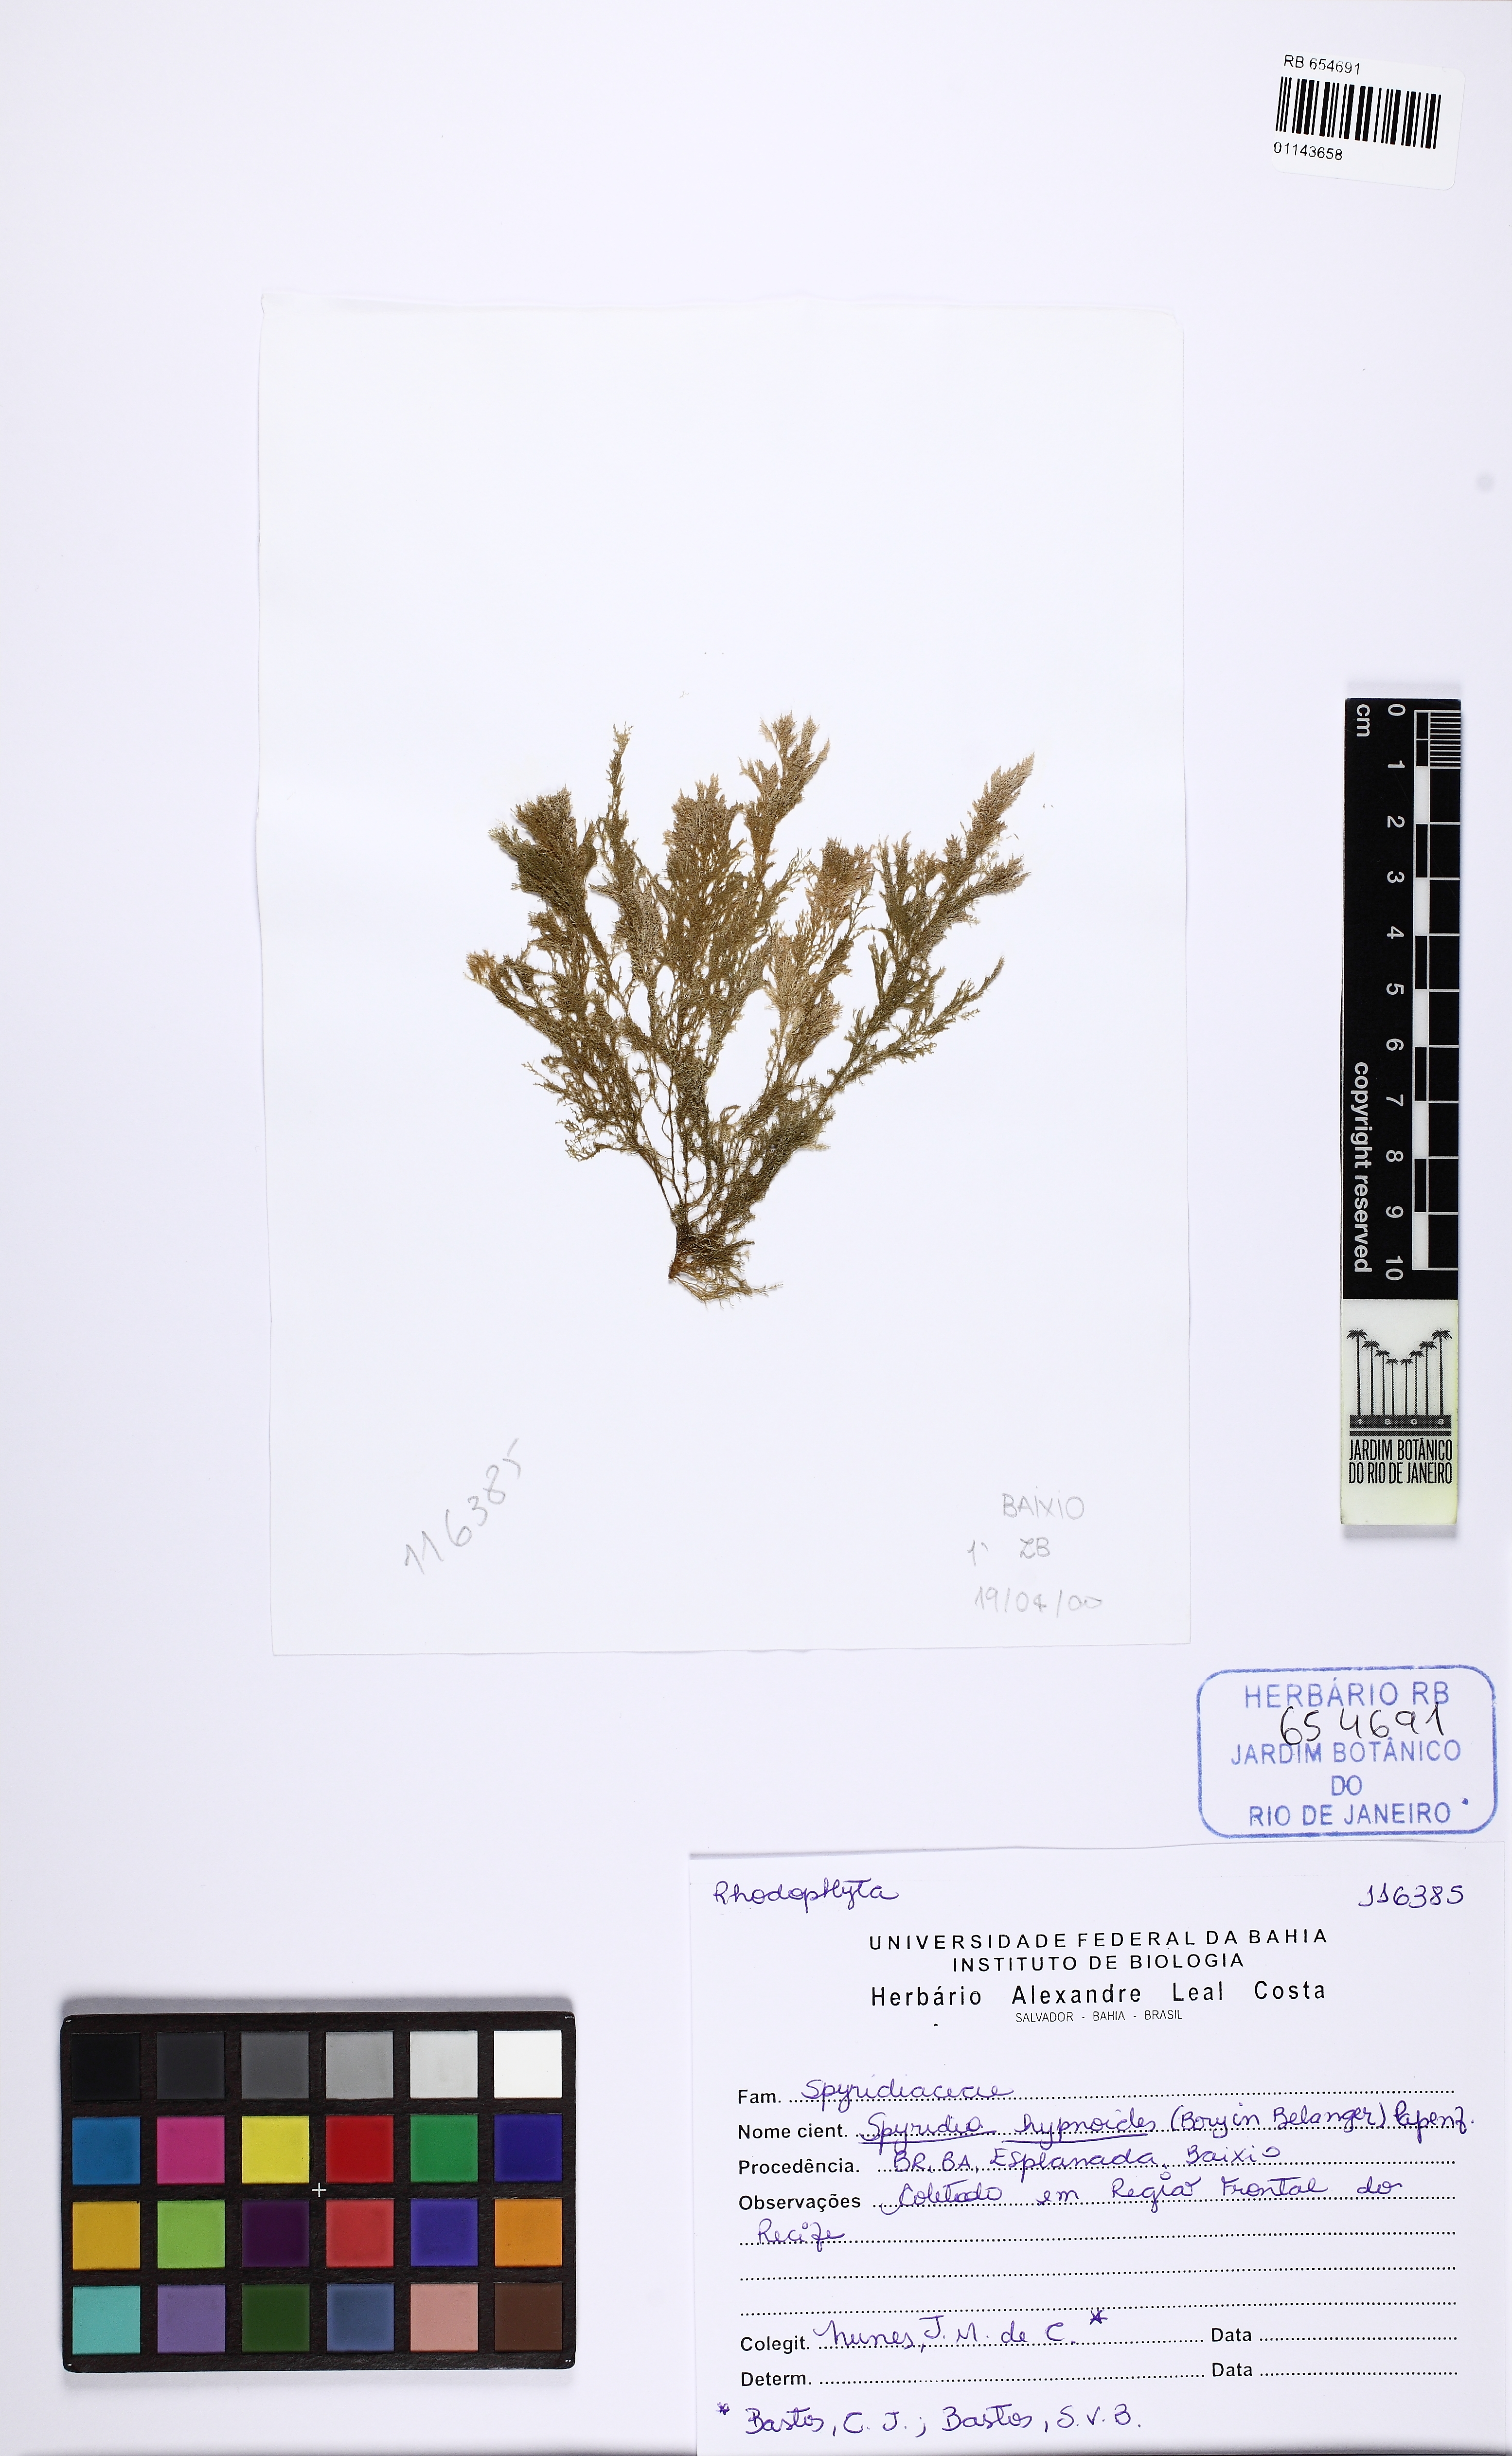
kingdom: Plantae
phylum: Rhodophyta
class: Florideophyceae
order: Ceramiales
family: Spyridiaceae
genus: Spyridia
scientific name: Spyridia hypnoides
